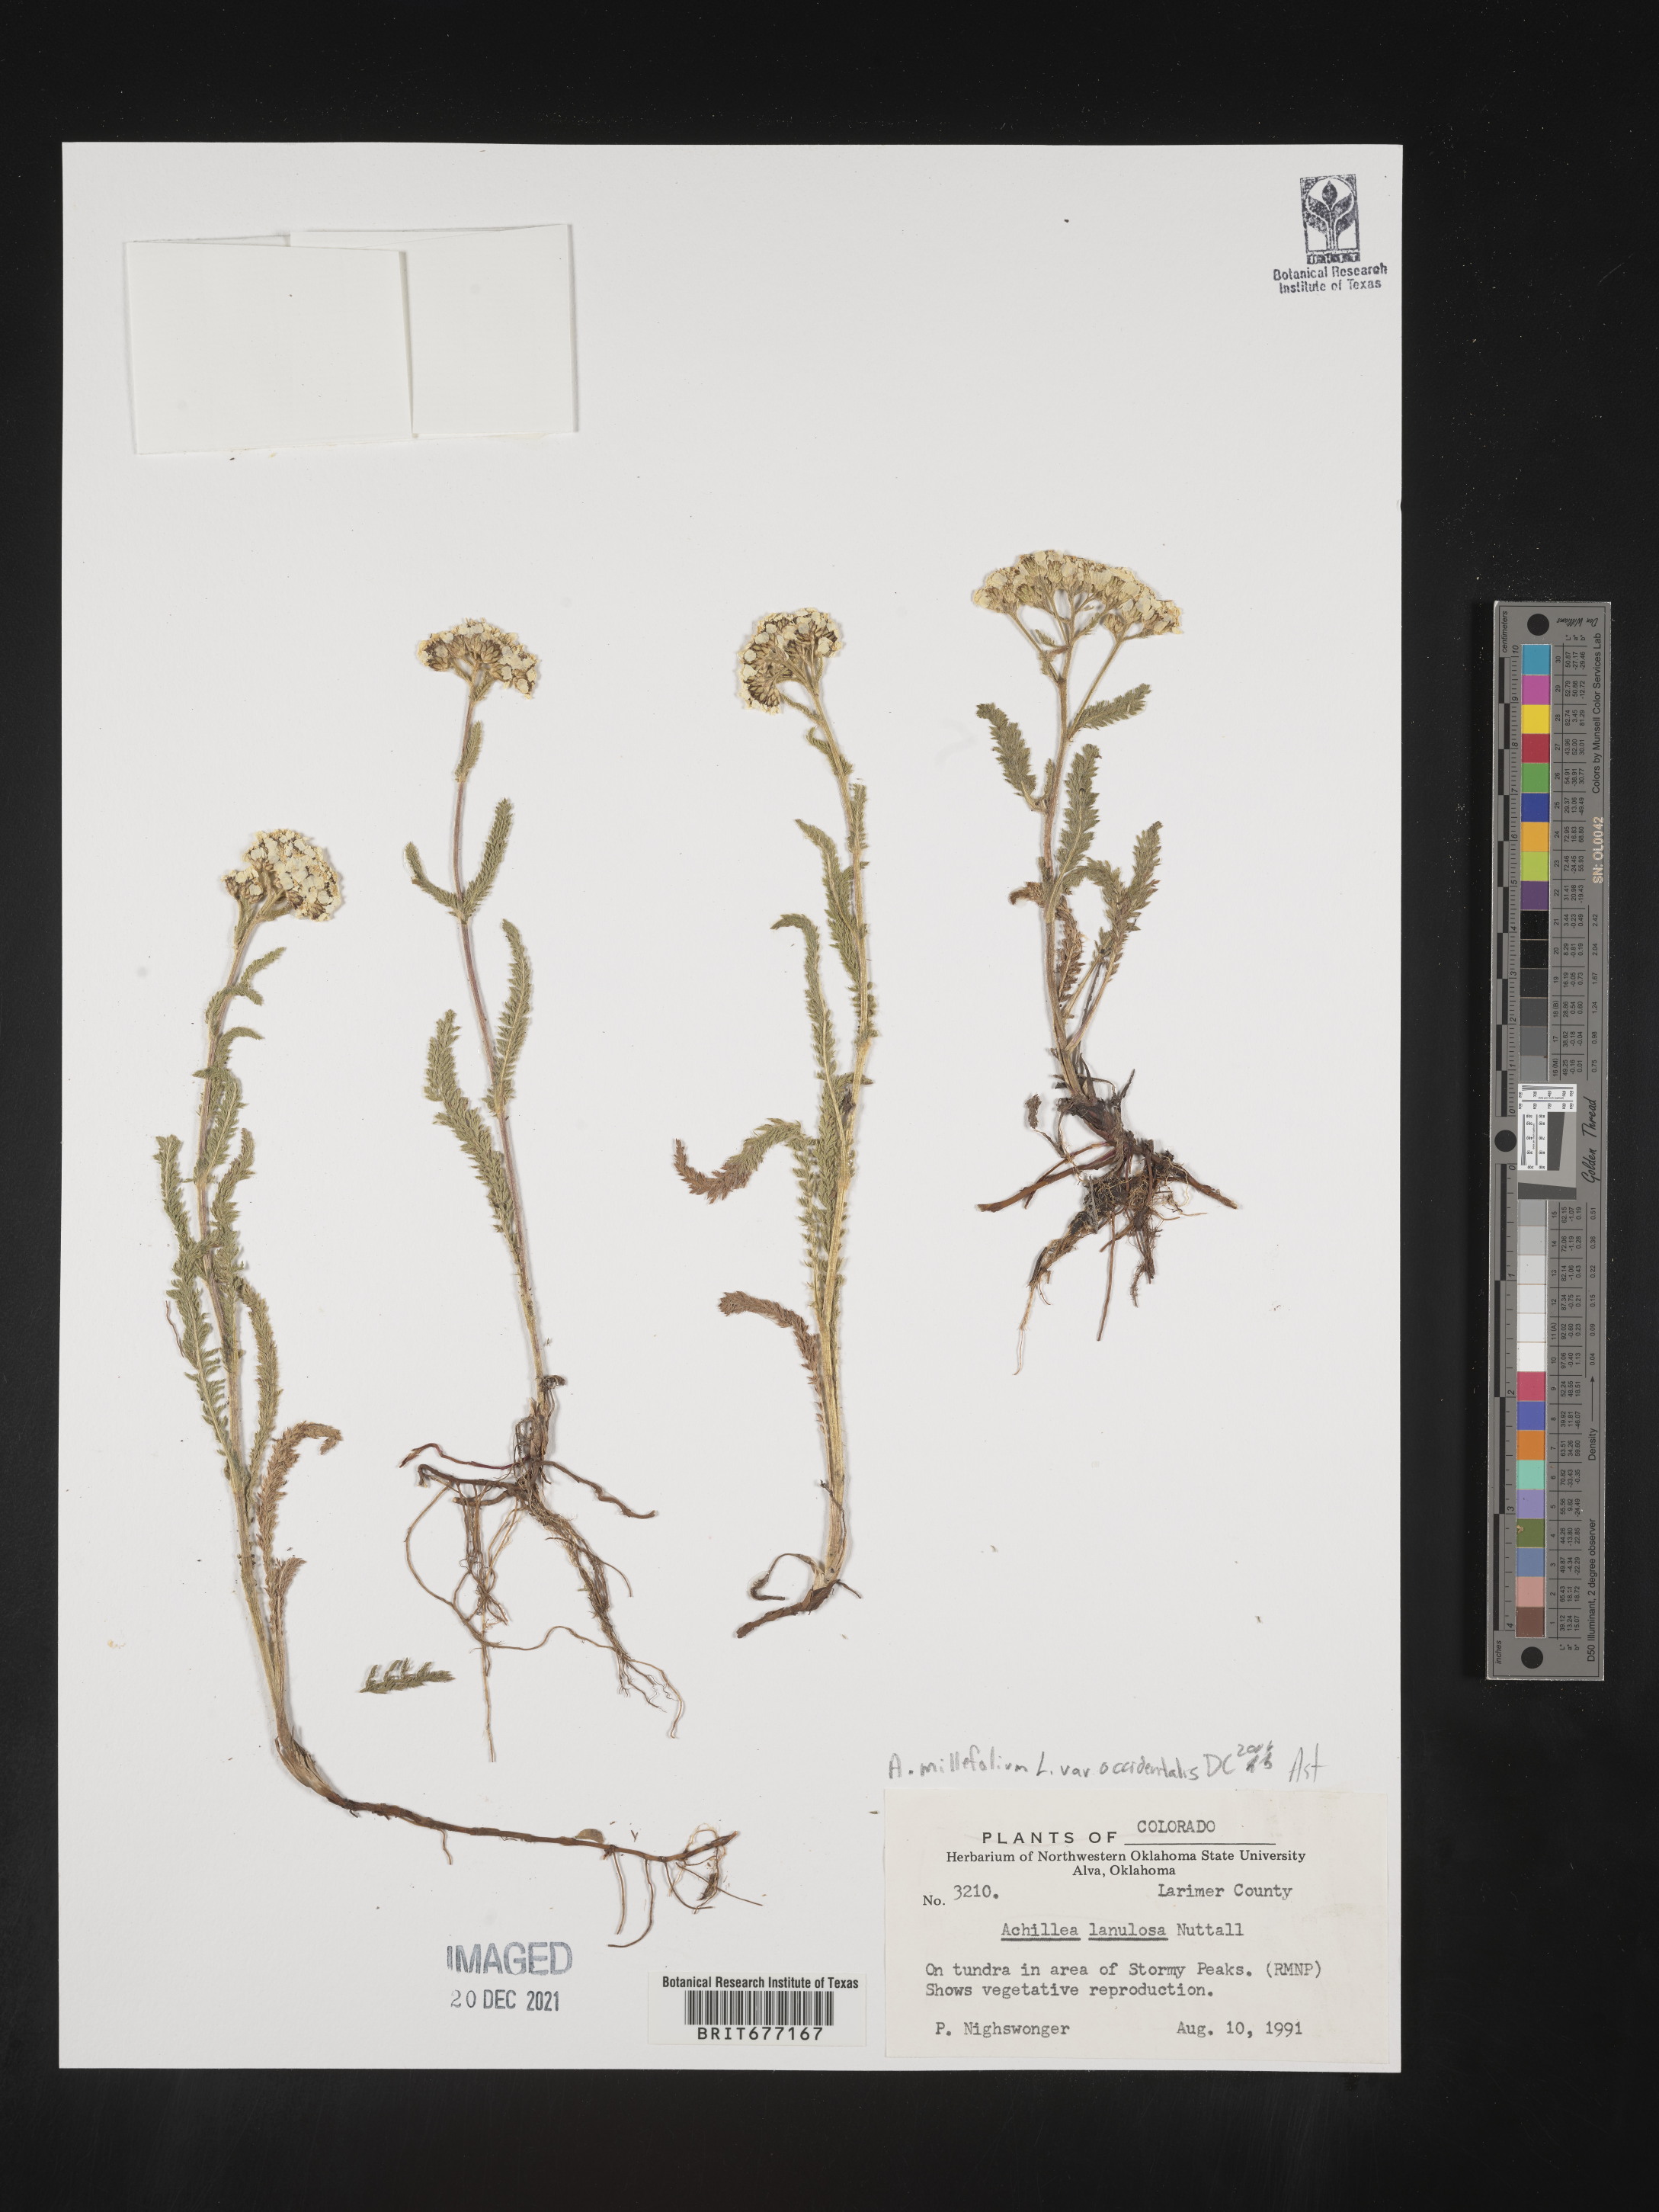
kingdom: Plantae
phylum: Tracheophyta
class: Magnoliopsida
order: Asterales
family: Asteraceae
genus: Achillea
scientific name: Achillea millefolium
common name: Yarrow
